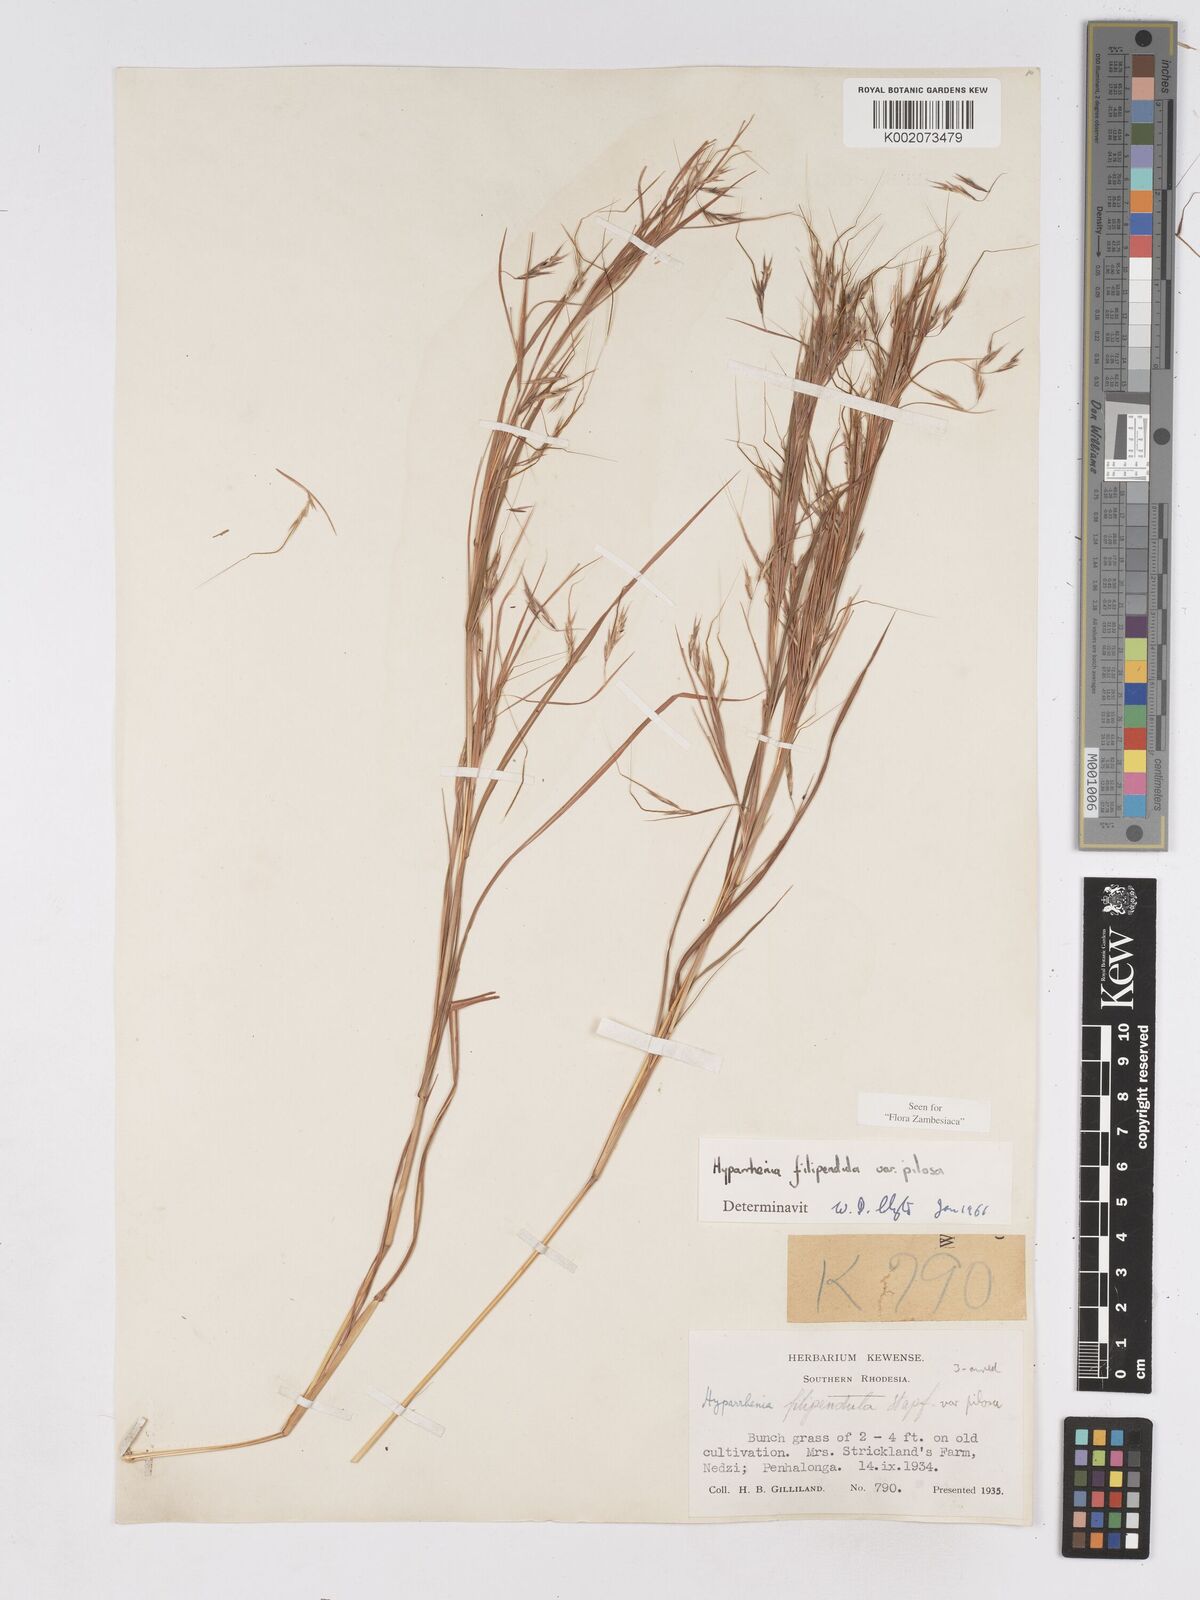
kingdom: Plantae
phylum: Tracheophyta
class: Liliopsida
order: Poales
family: Poaceae
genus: Hyparrhenia
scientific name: Hyparrhenia filipendula
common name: Tambookie grass
